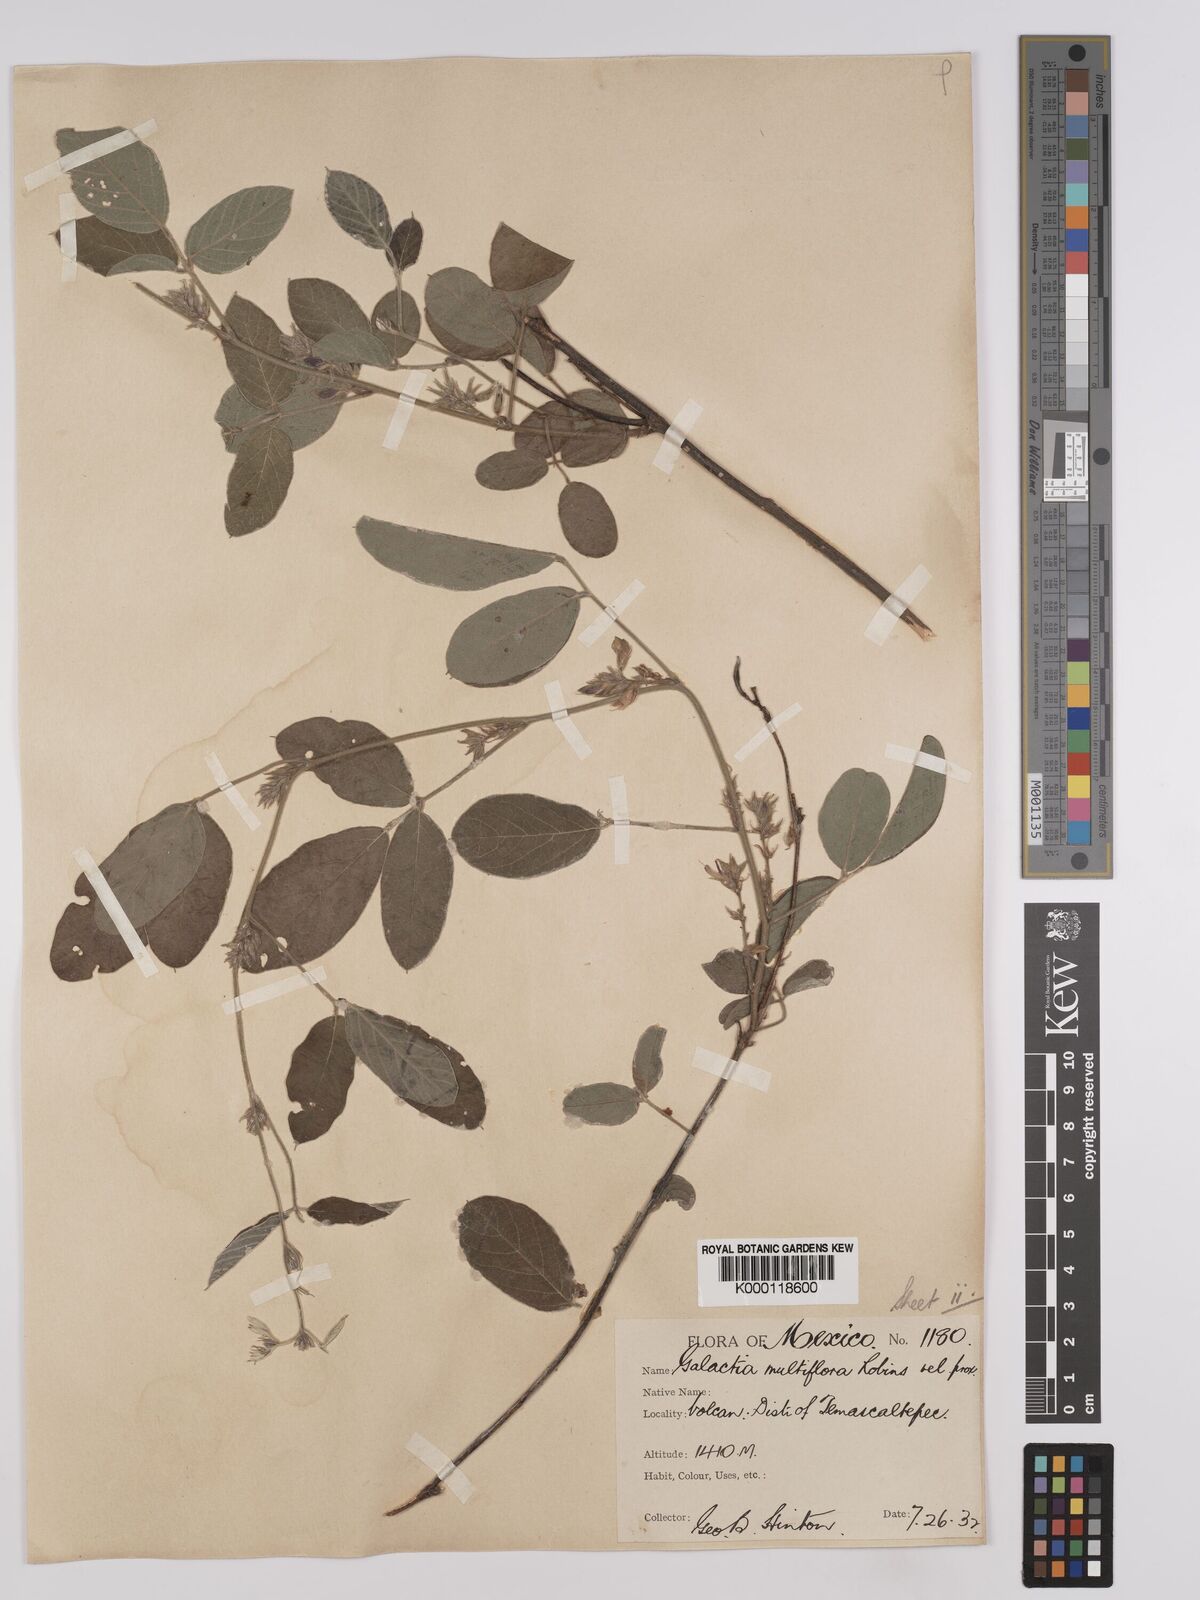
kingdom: Plantae
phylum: Tracheophyta
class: Magnoliopsida
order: Fabales
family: Fabaceae
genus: Galactia
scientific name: Galactia multiflora
